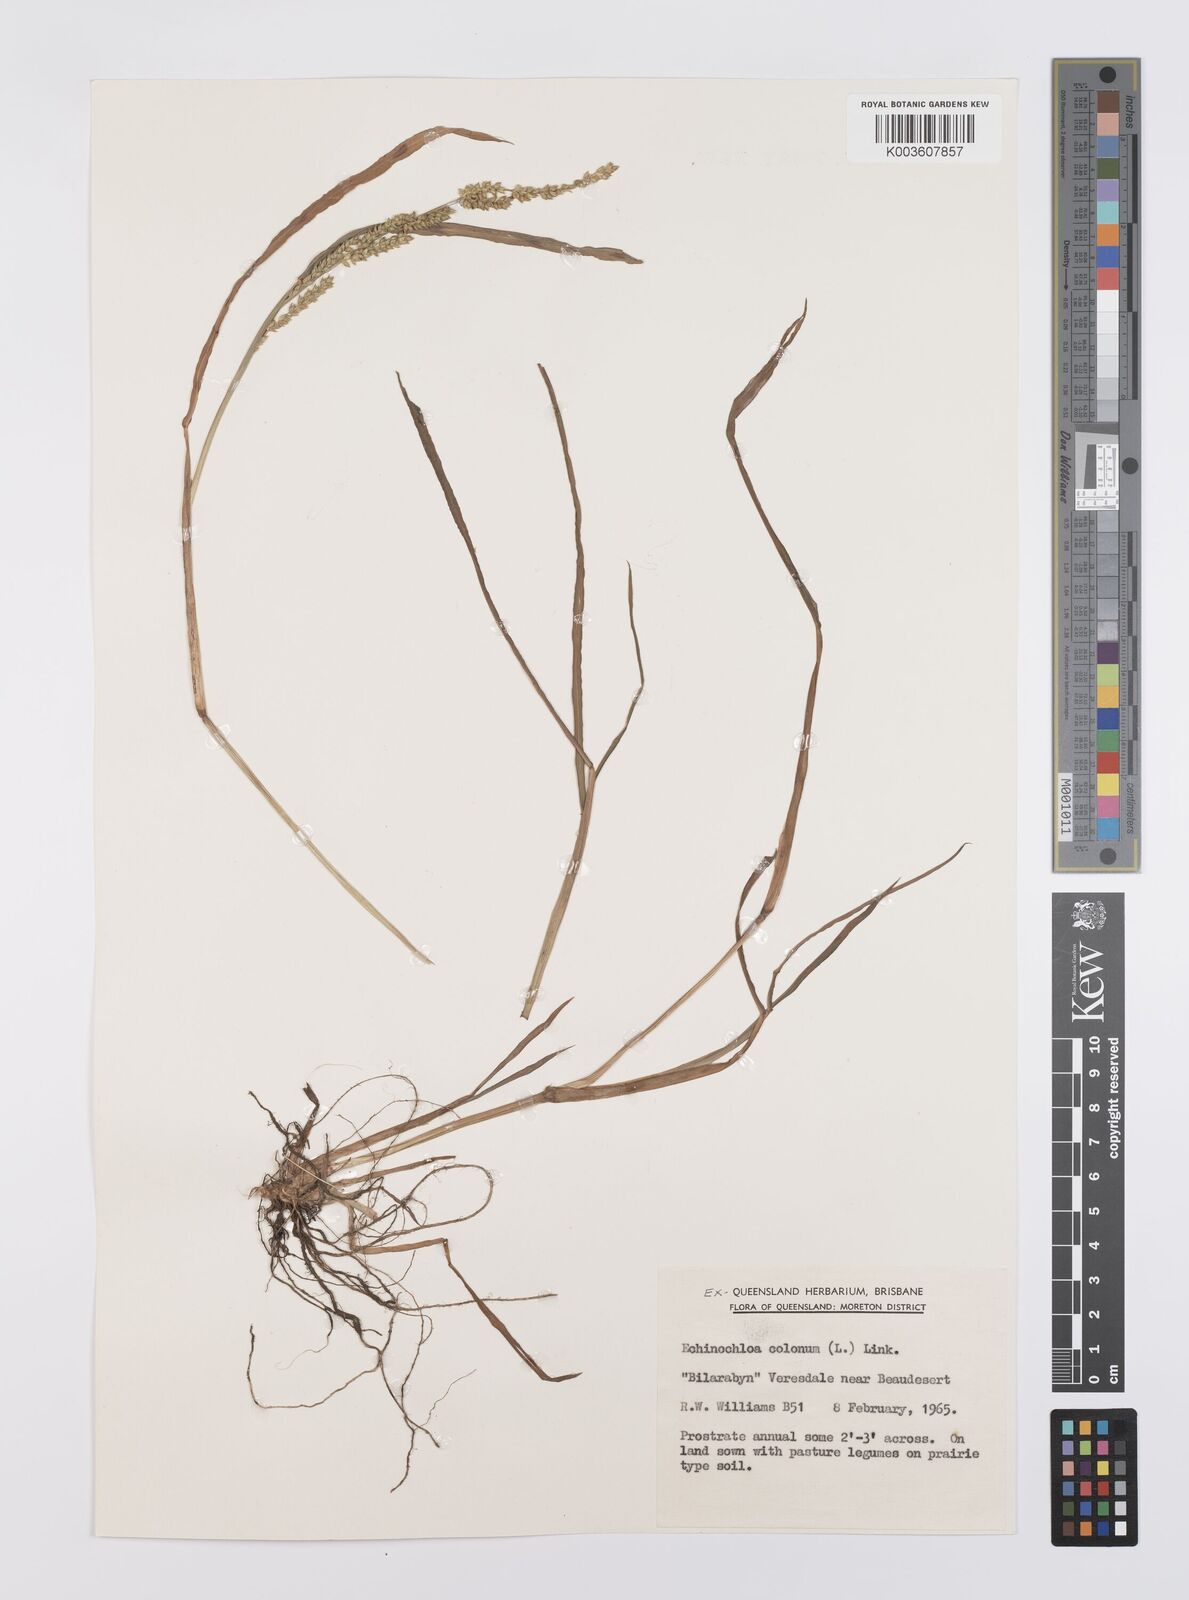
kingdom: Plantae
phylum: Tracheophyta
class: Liliopsida
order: Poales
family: Poaceae
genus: Echinochloa
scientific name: Echinochloa colonum
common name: Jungle rice
